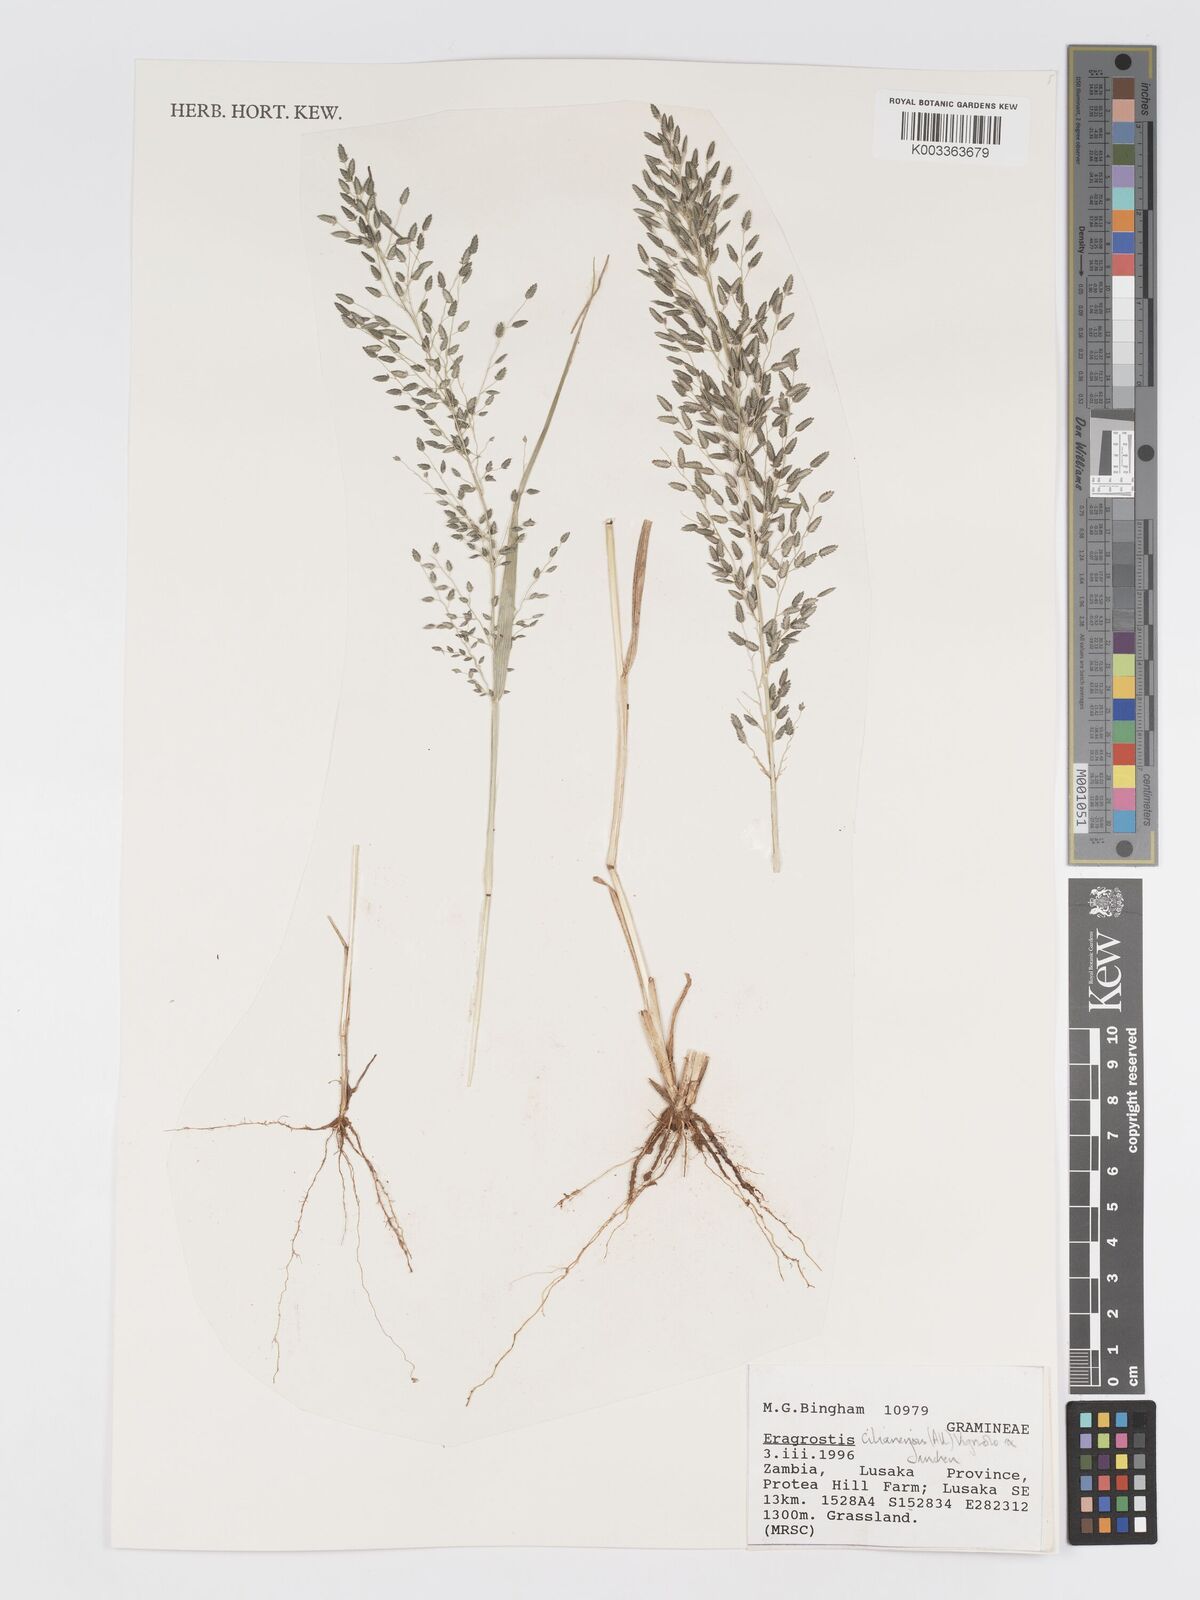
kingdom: Plantae
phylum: Tracheophyta
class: Liliopsida
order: Poales
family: Poaceae
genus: Eragrostis
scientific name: Eragrostis cilianensis
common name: Stinkgrass
